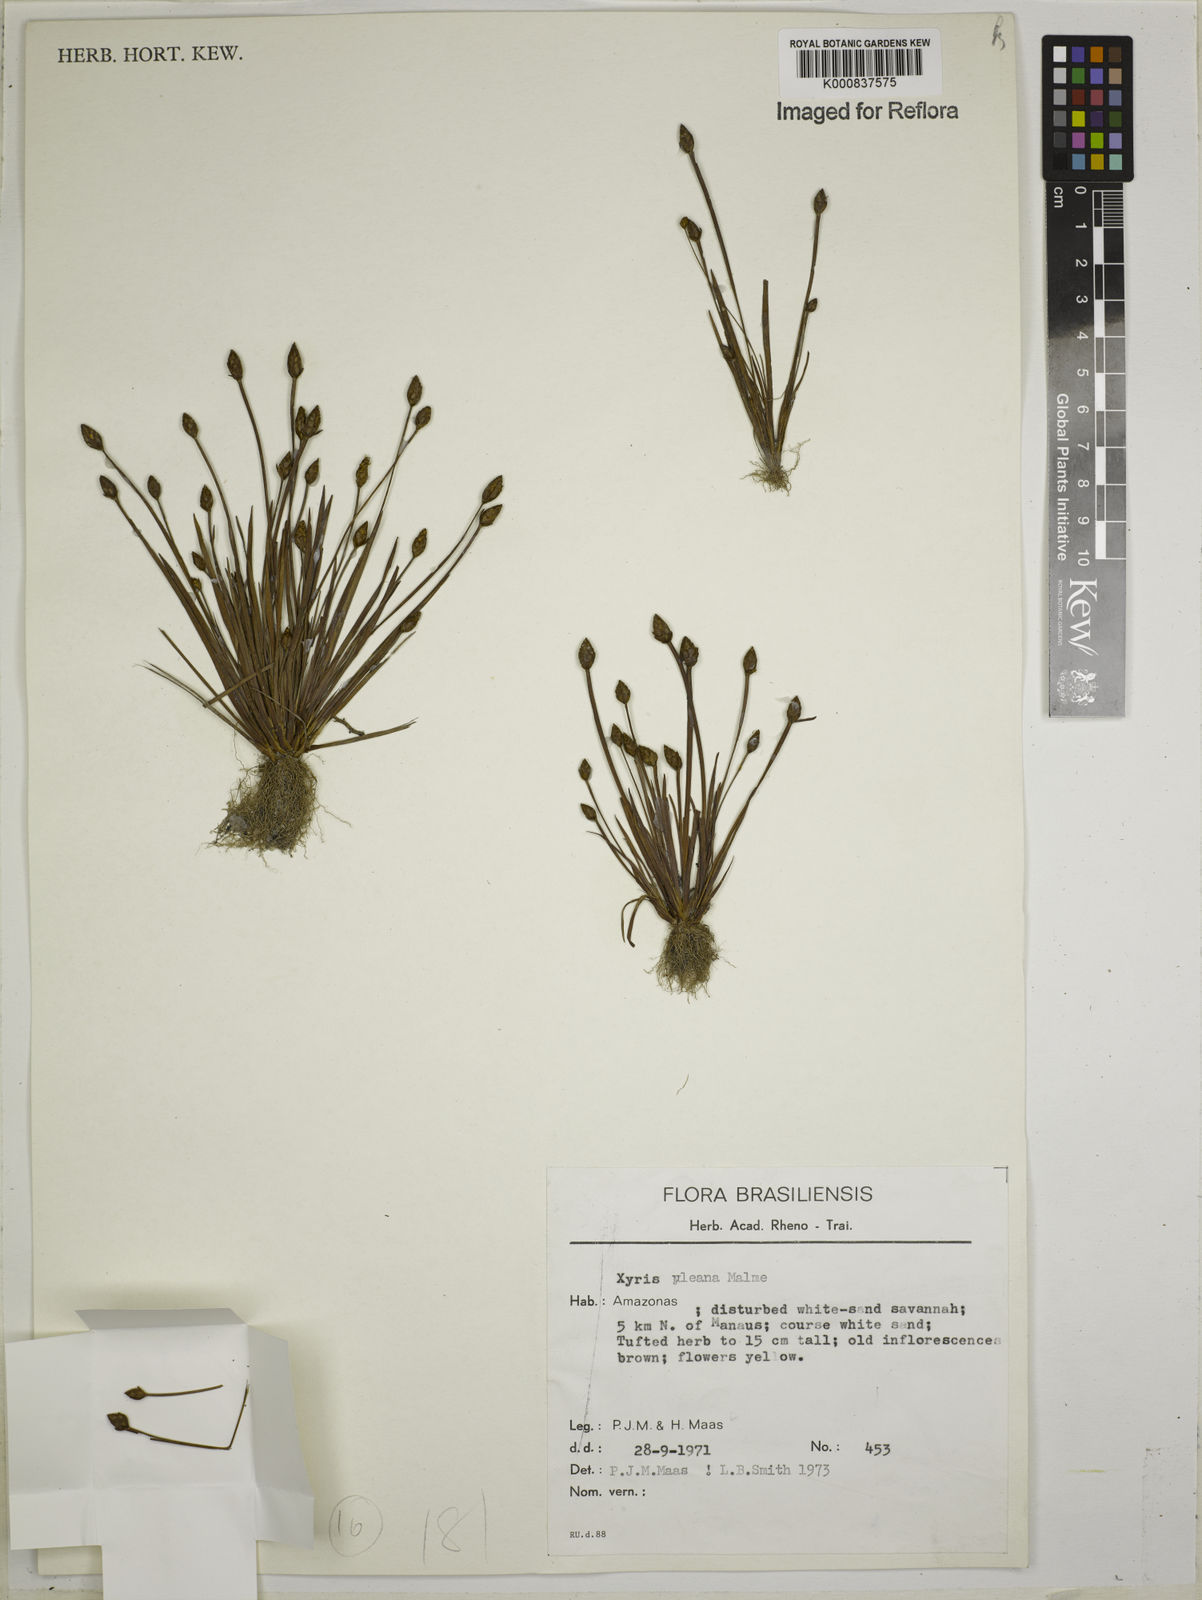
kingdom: Plantae
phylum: Tracheophyta
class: Liliopsida
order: Poales
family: Xyridaceae
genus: Xyris
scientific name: Xyris uleana
